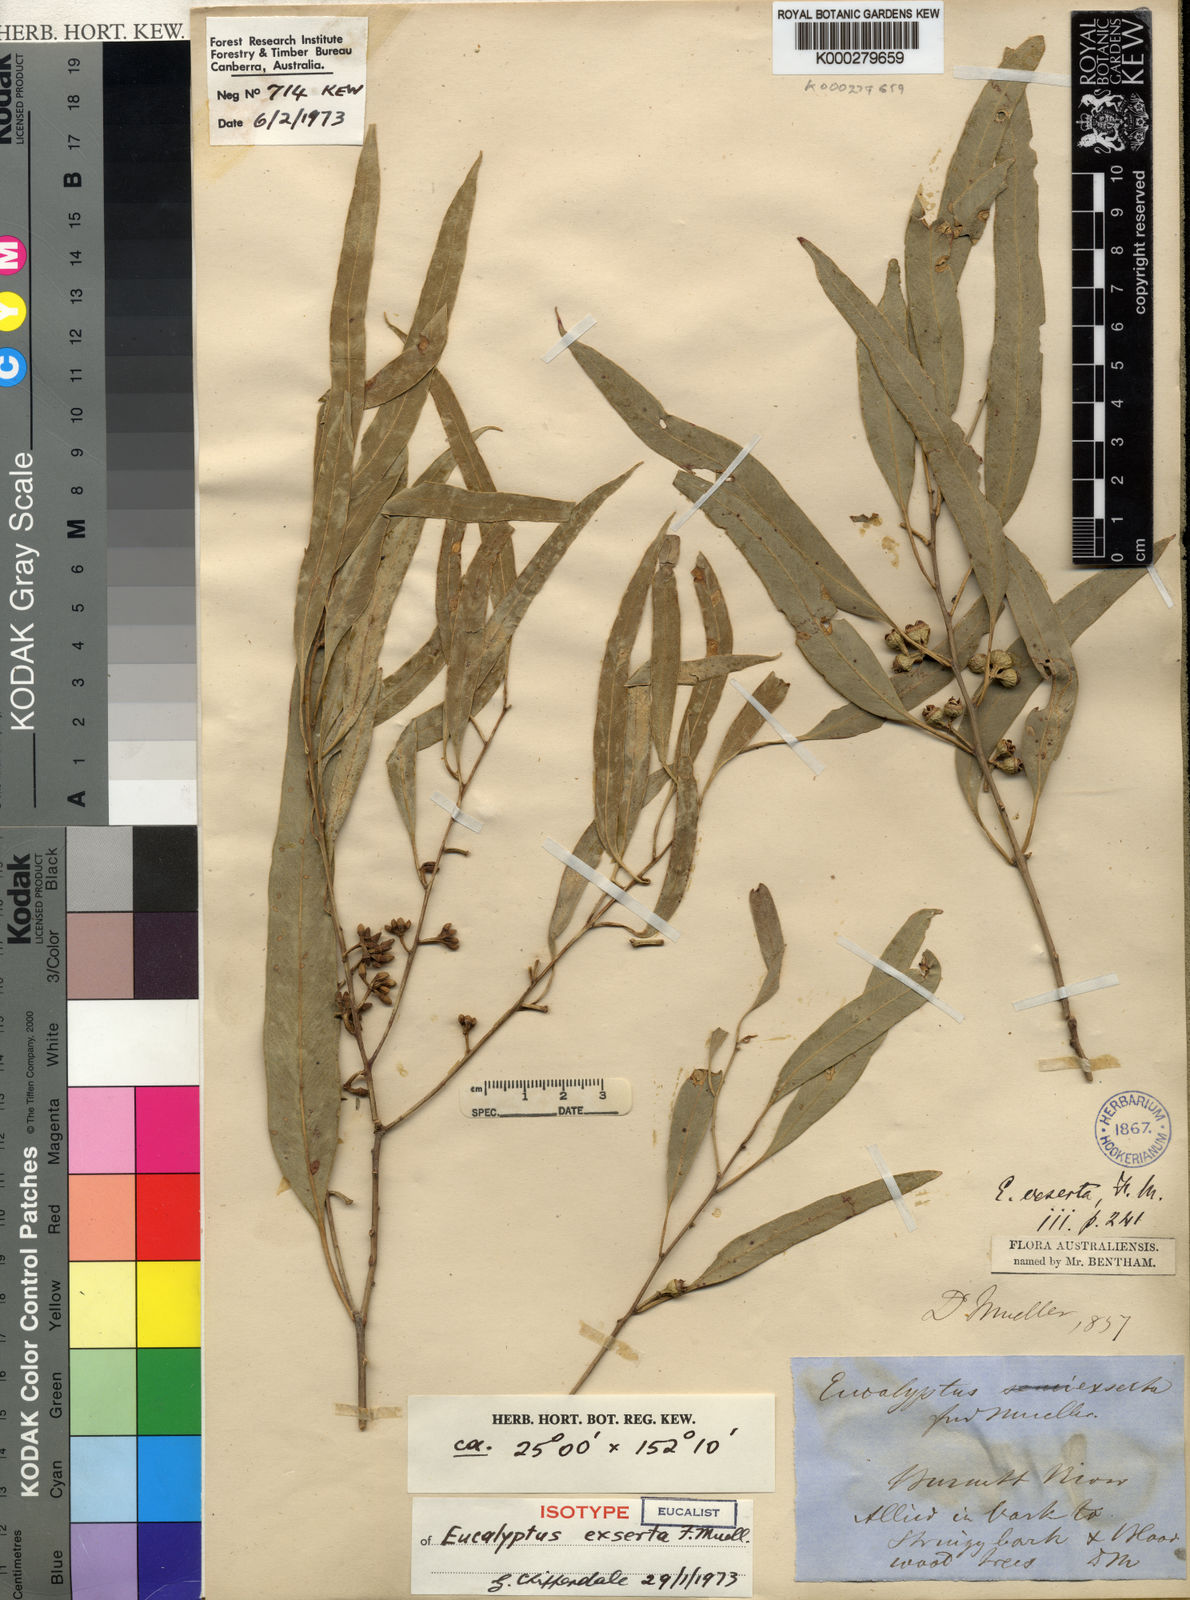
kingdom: Plantae
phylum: Tracheophyta
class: Magnoliopsida
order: Myrtales
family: Myrtaceae
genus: Eucalyptus
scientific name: Eucalyptus exserta
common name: Peppermint-bendo
